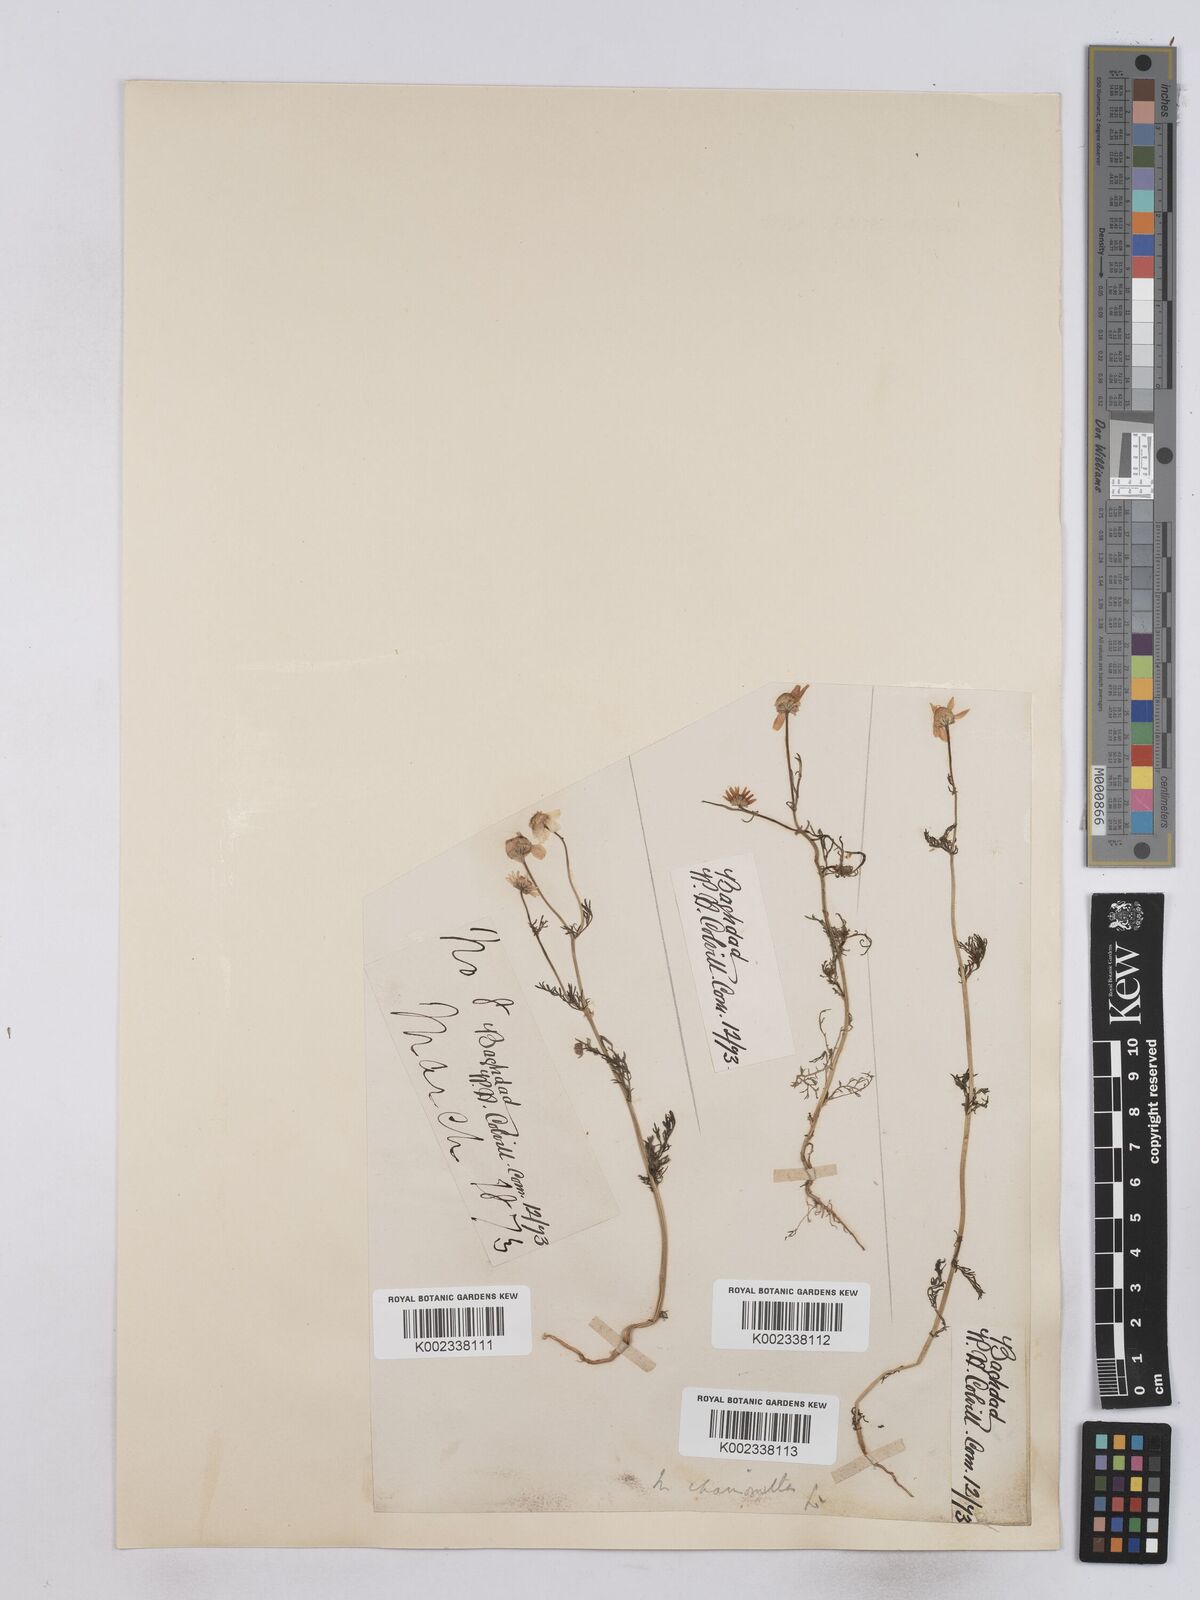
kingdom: Plantae
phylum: Tracheophyta
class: Magnoliopsida
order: Asterales
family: Asteraceae
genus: Matricaria
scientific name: Matricaria chamomilla
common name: Scented mayweed
